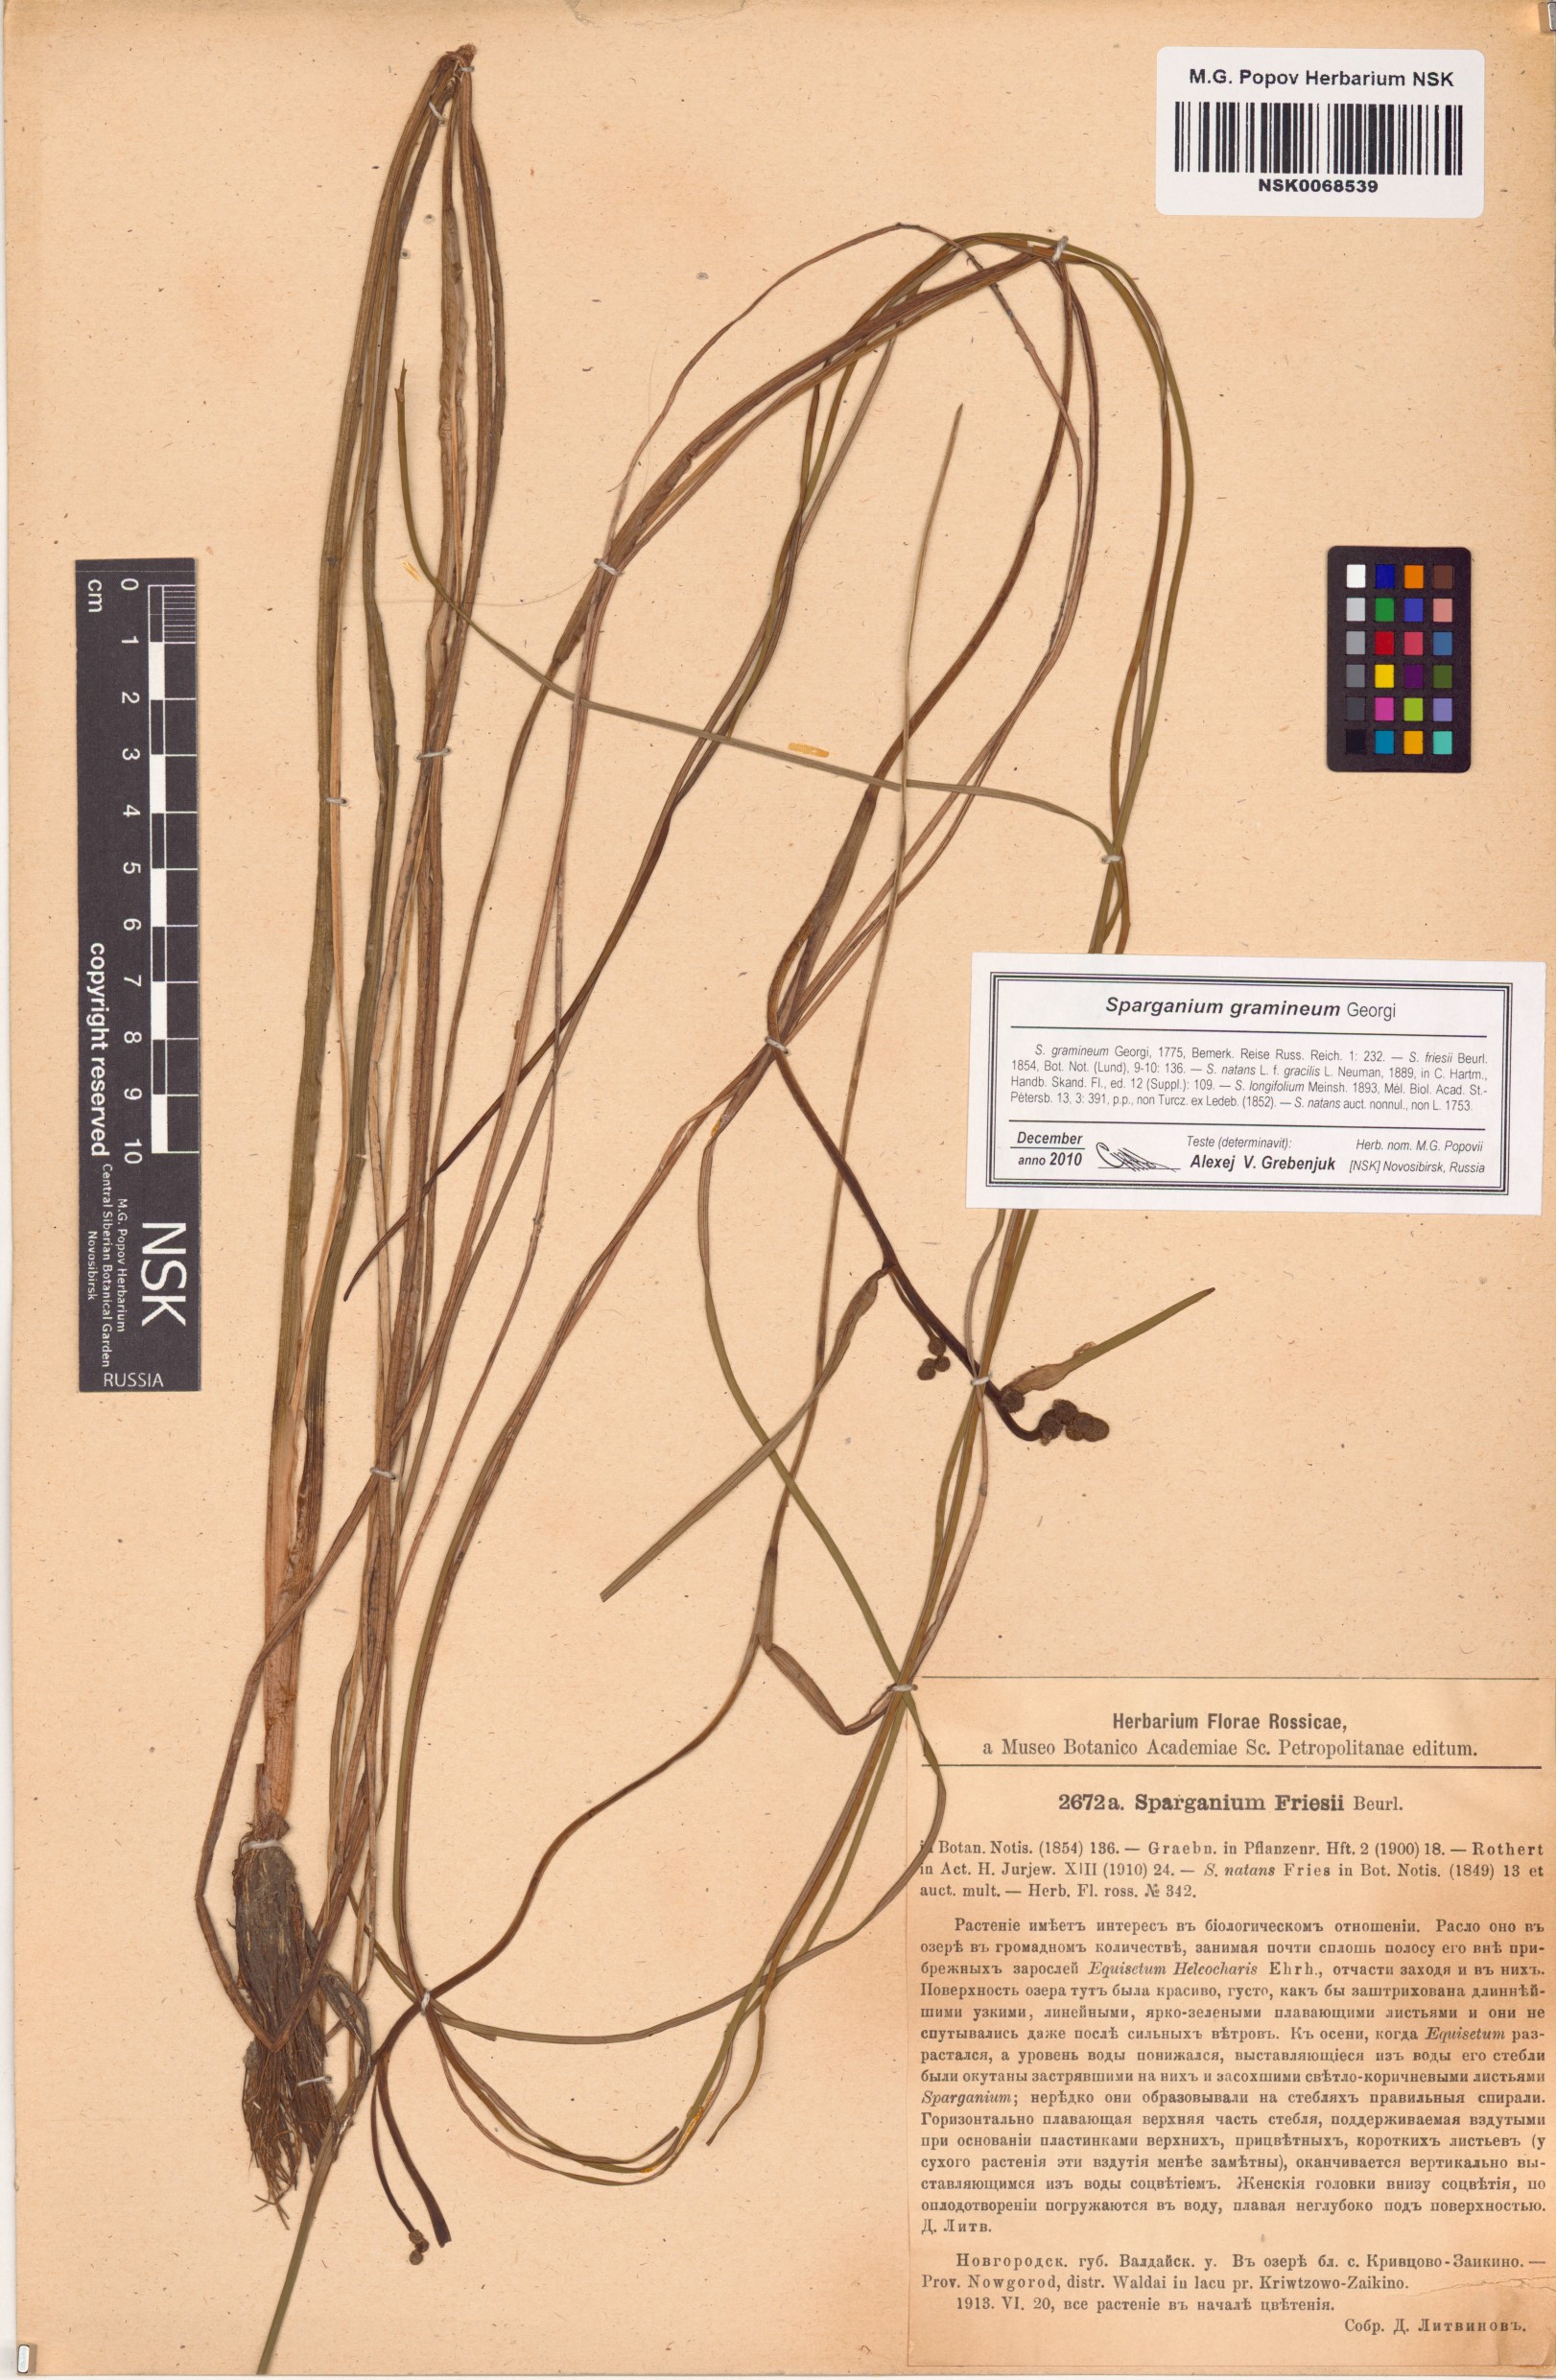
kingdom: Plantae
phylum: Tracheophyta
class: Liliopsida
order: Poales
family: Typhaceae
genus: Sparganium
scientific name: Sparganium gramineum
